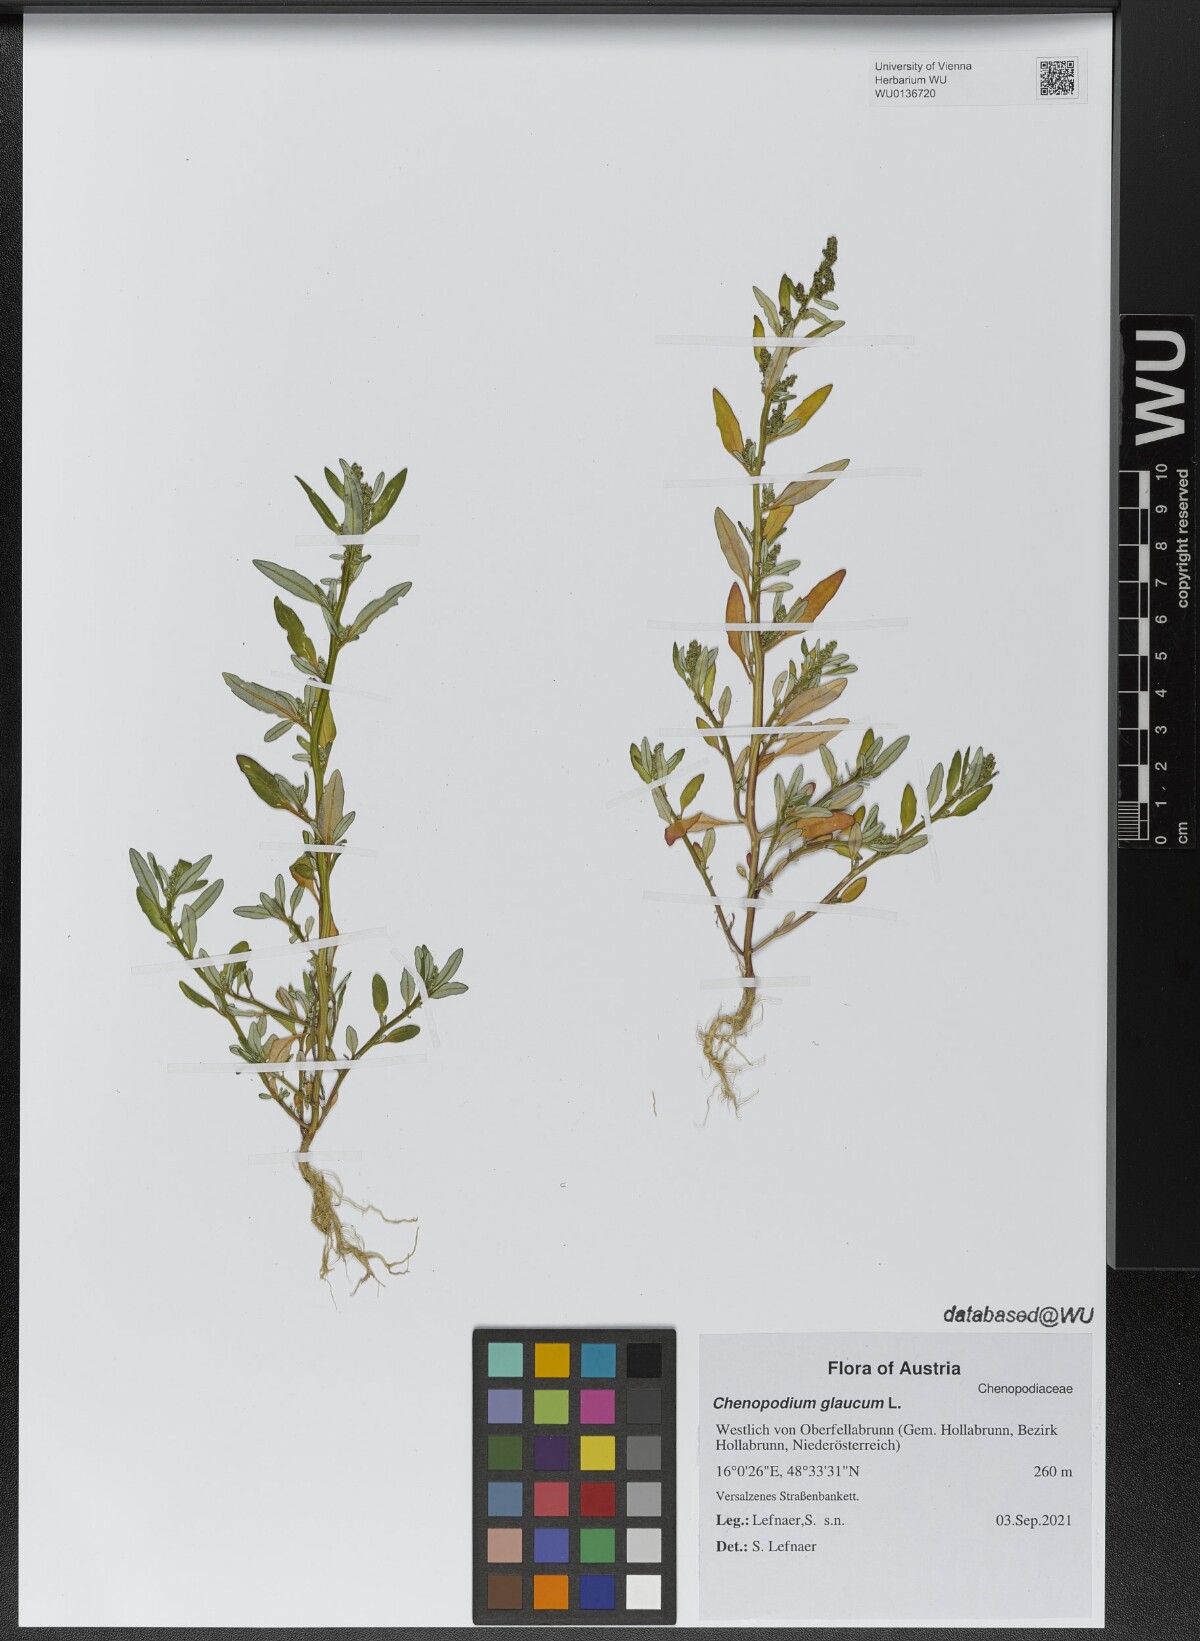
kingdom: Plantae
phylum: Tracheophyta
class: Magnoliopsida
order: Caryophyllales
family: Amaranthaceae
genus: Oxybasis
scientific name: Oxybasis glauca
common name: Glaucous goosefoot
